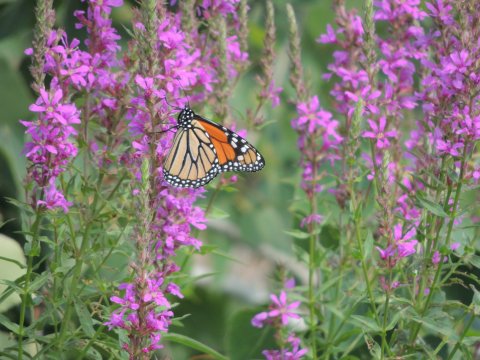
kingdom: Animalia
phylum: Arthropoda
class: Insecta
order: Lepidoptera
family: Nymphalidae
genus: Danaus
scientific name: Danaus plexippus
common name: Monarch
